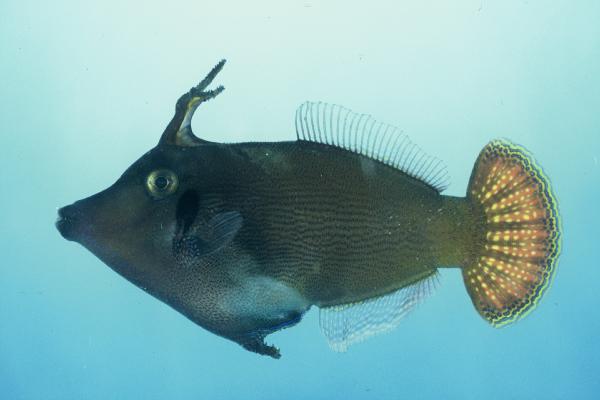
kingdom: Animalia
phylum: Chordata
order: Tetraodontiformes
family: Monacanthidae
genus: Pervagor
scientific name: Pervagor janthinosoma
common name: Blackbar filefish
